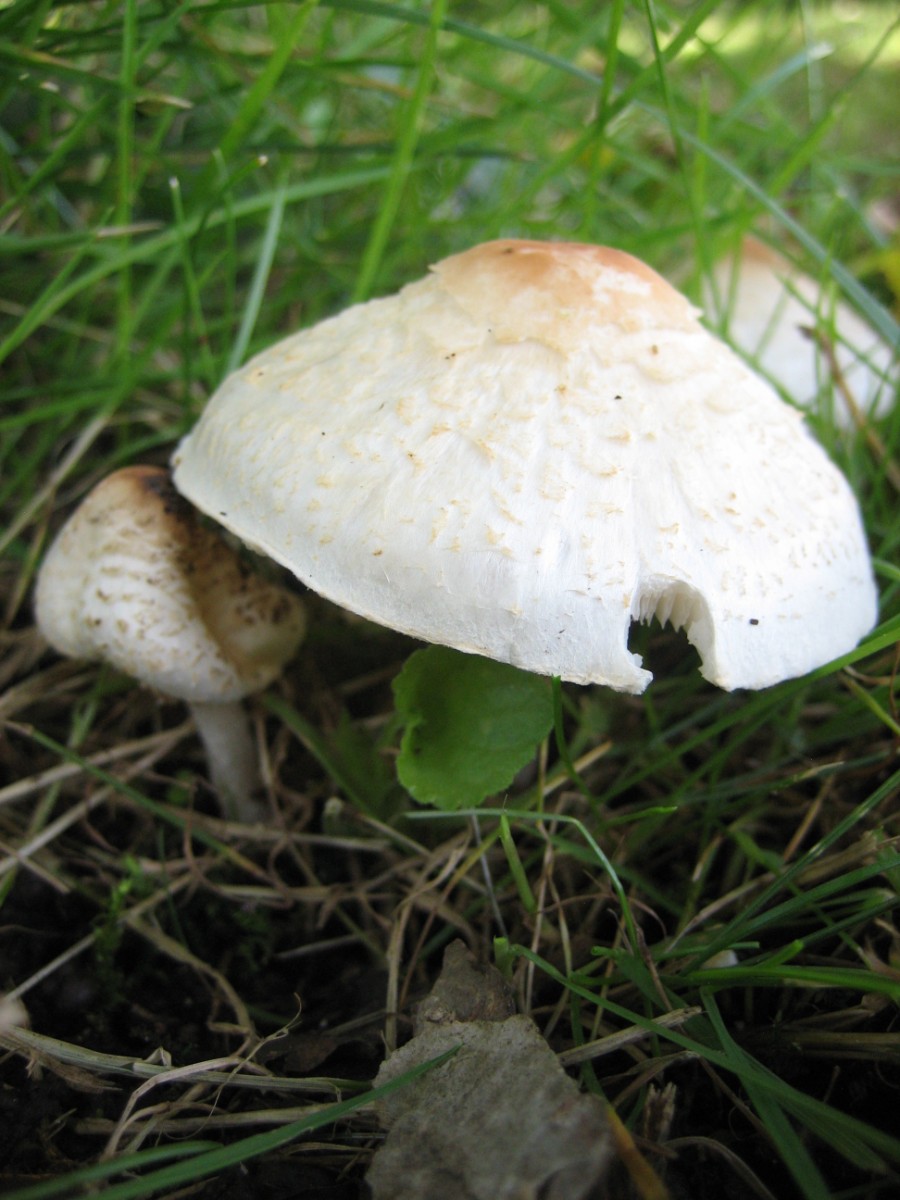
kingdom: Fungi
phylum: Basidiomycota
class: Agaricomycetes
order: Agaricales
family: Agaricaceae
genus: Lepiota
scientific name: Lepiota cristata
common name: stinkende parasolhat
